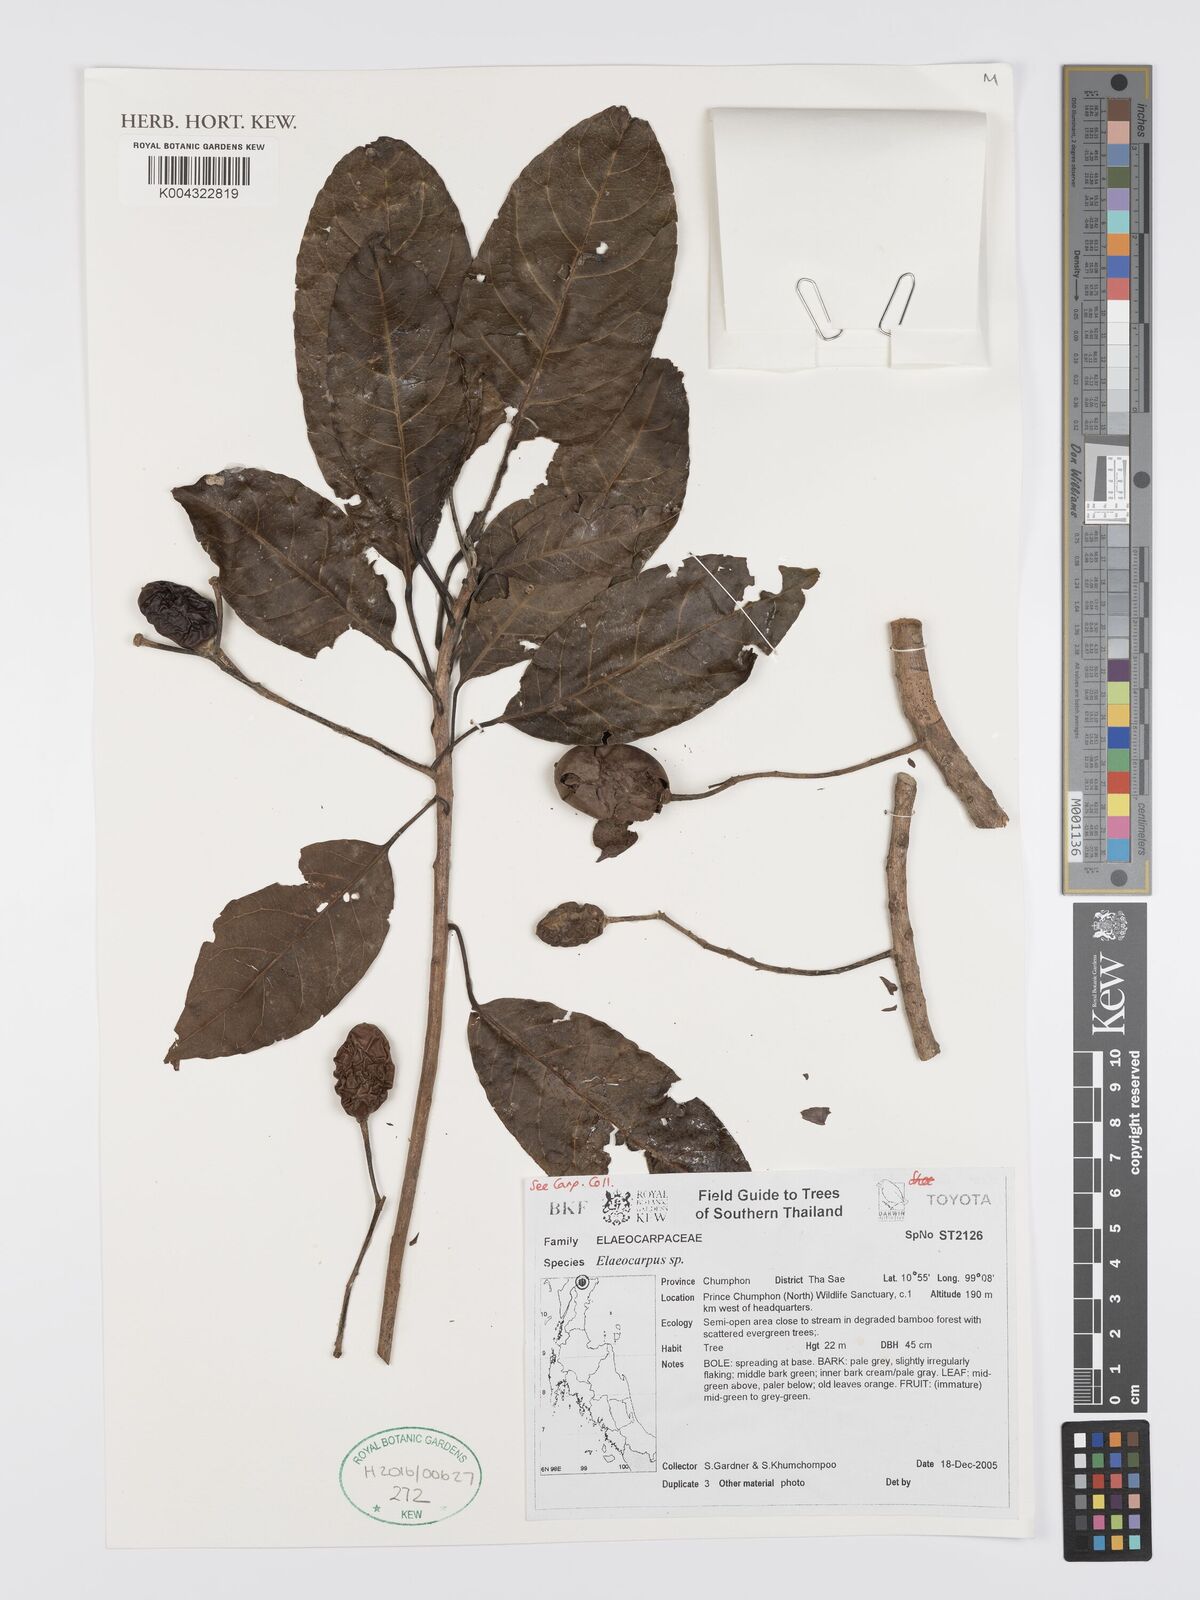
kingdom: Plantae
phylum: Tracheophyta
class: Magnoliopsida
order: Oxalidales
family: Elaeocarpaceae
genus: Elaeocarpus
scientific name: Elaeocarpus
